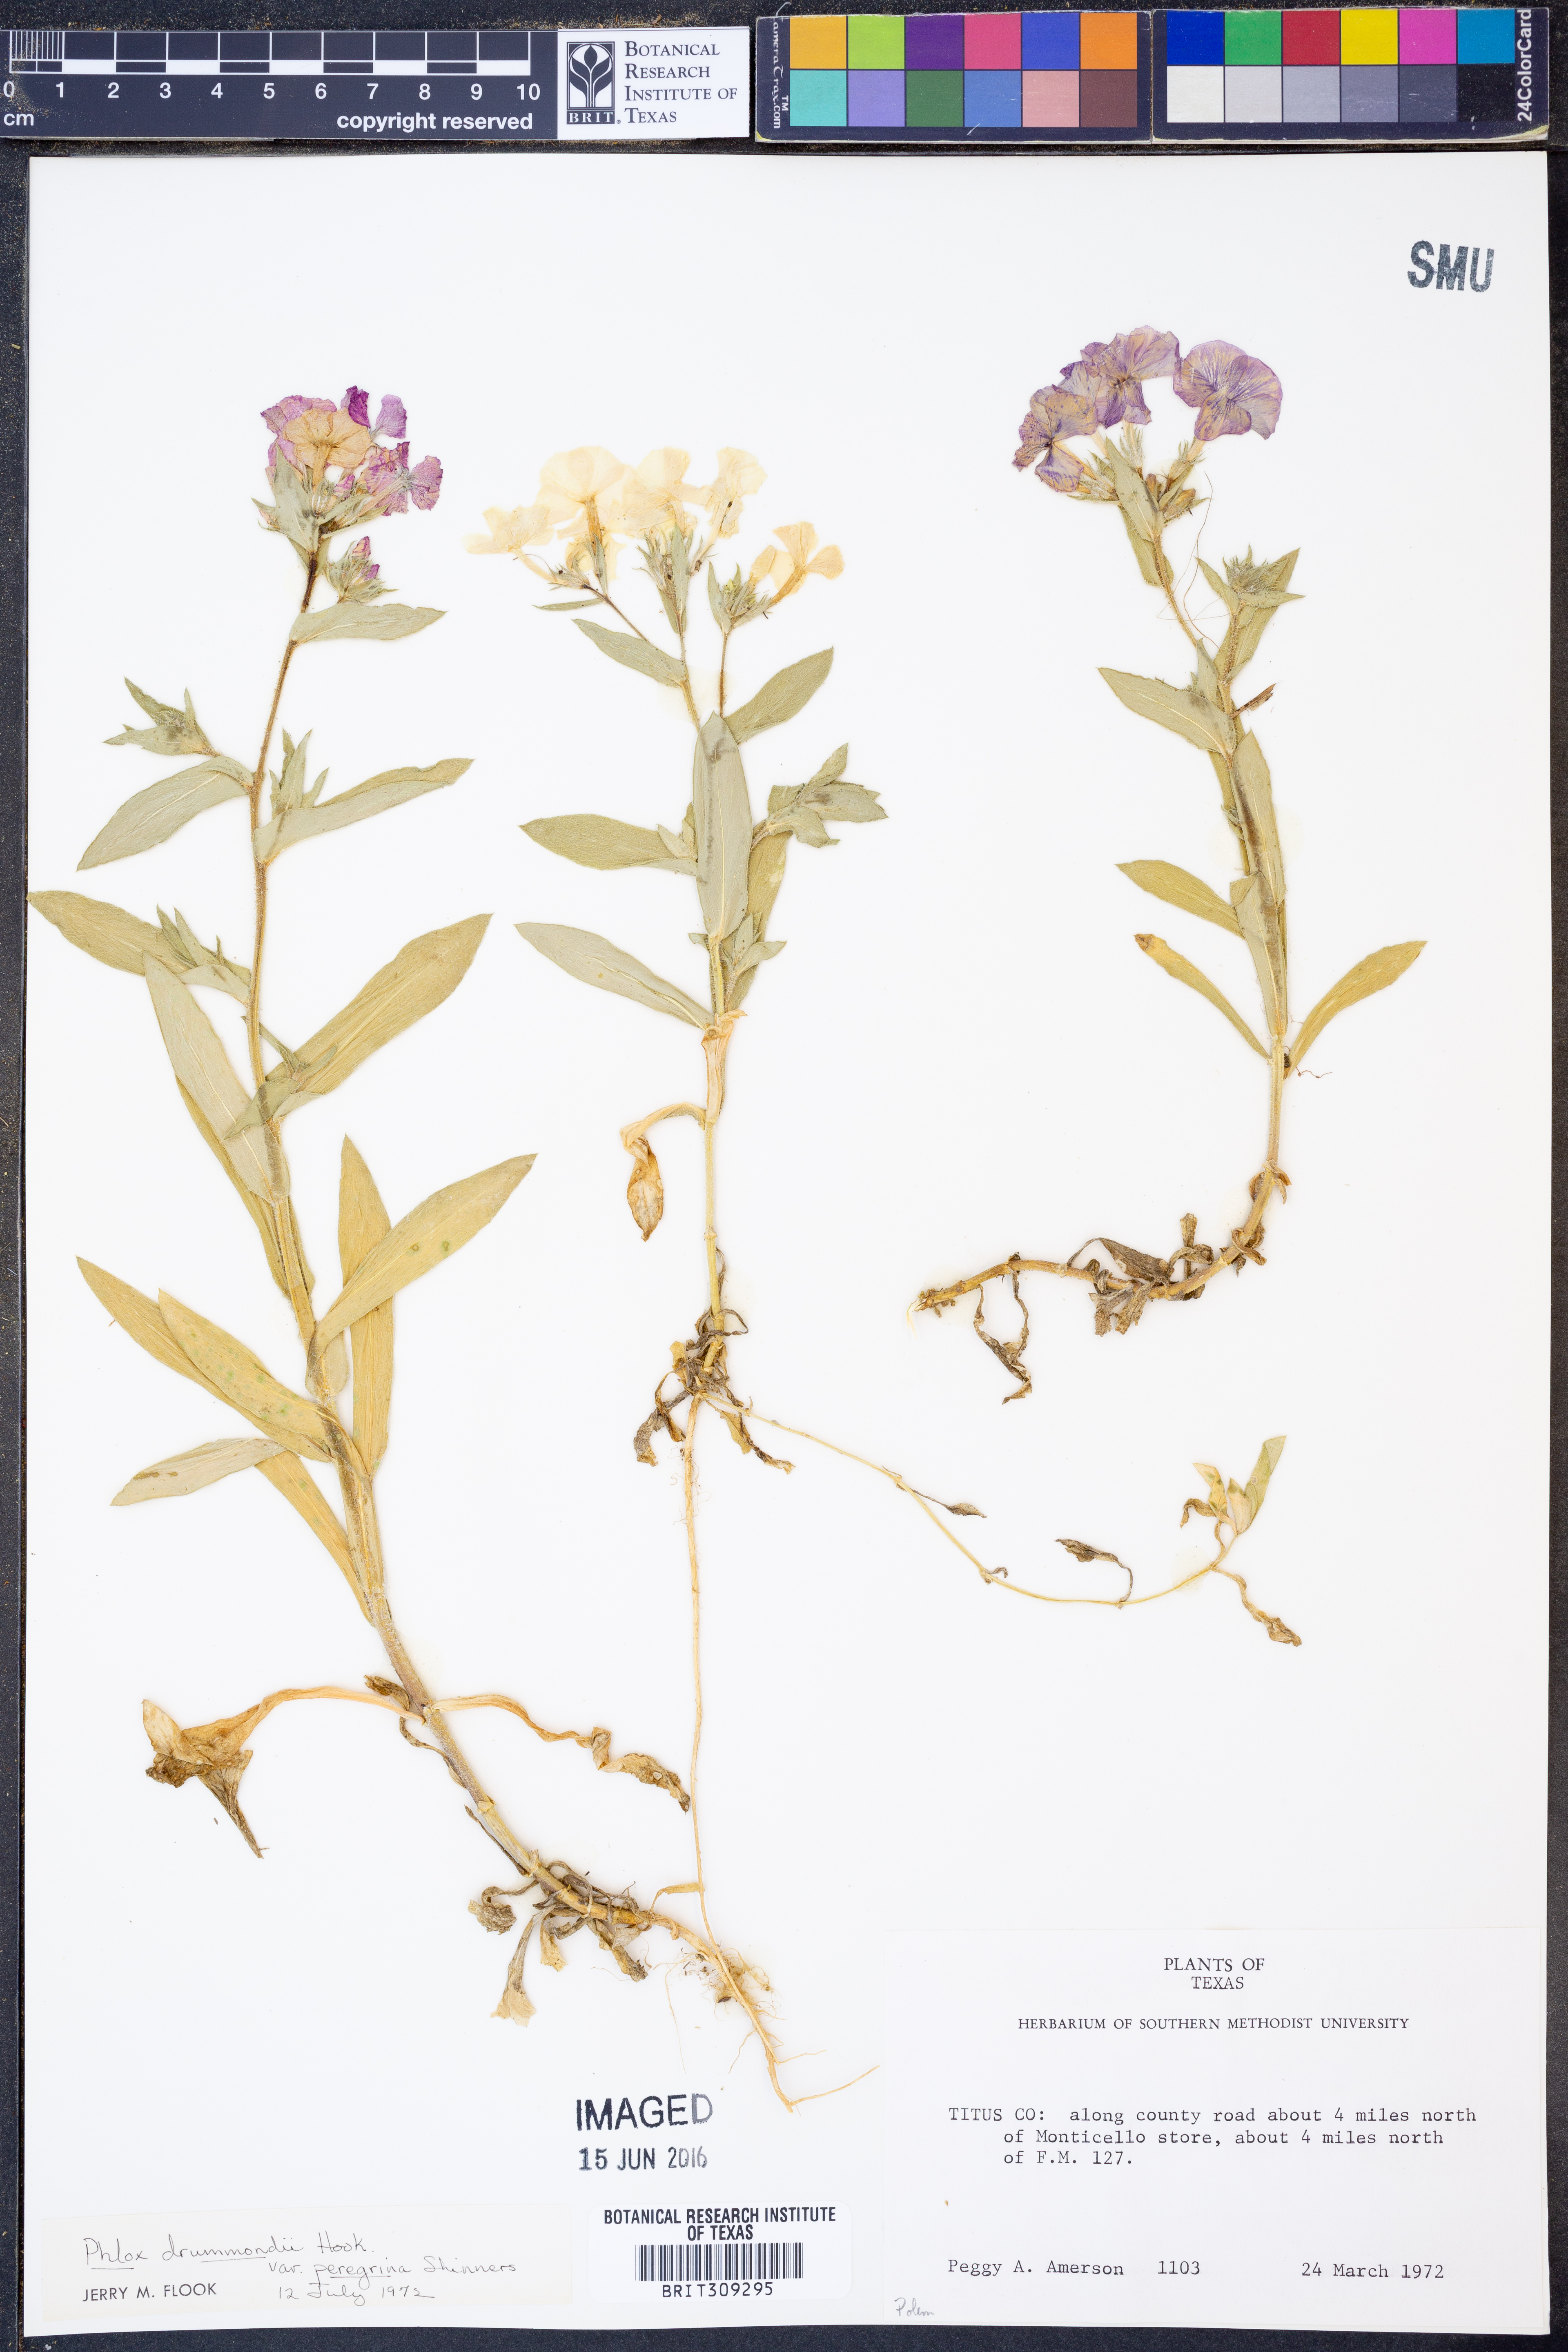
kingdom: Plantae
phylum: Tracheophyta
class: Magnoliopsida
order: Ericales
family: Polemoniaceae
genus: Phlox
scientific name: Phlox drummondii
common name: Drummond's phlox
